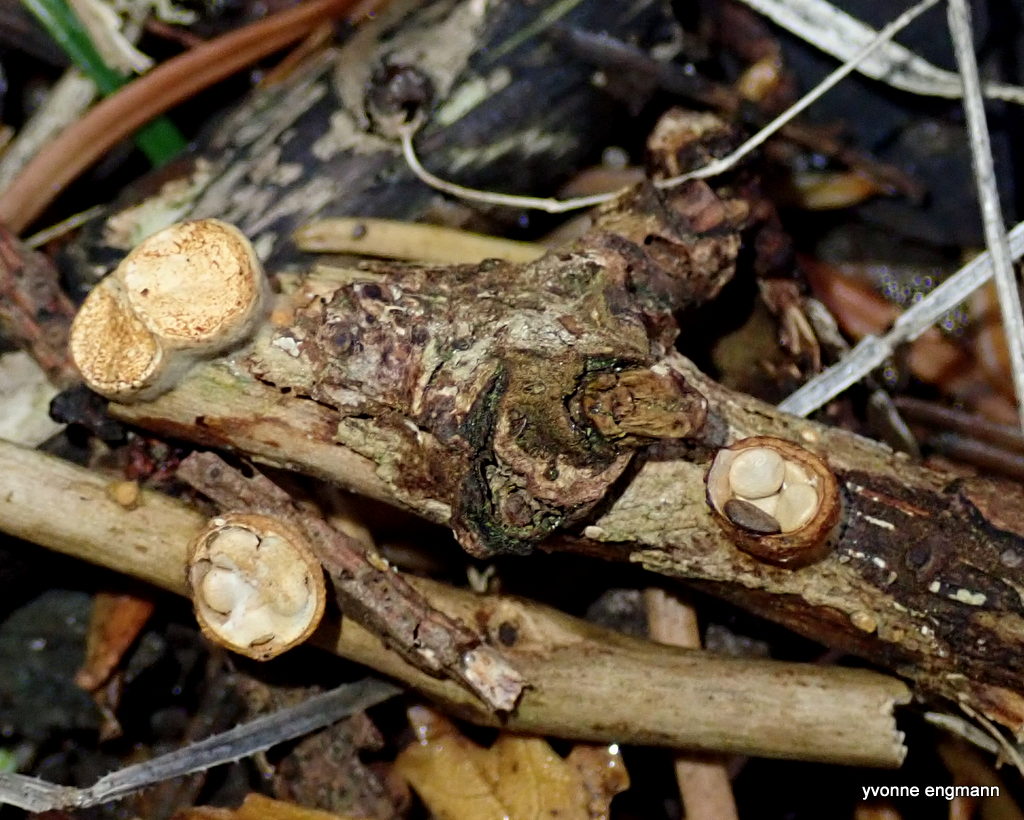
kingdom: Fungi
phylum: Basidiomycota
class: Agaricomycetes
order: Agaricales
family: Nidulariaceae
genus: Crucibulum
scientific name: Crucibulum crucibuliforme
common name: krukkesvamp
